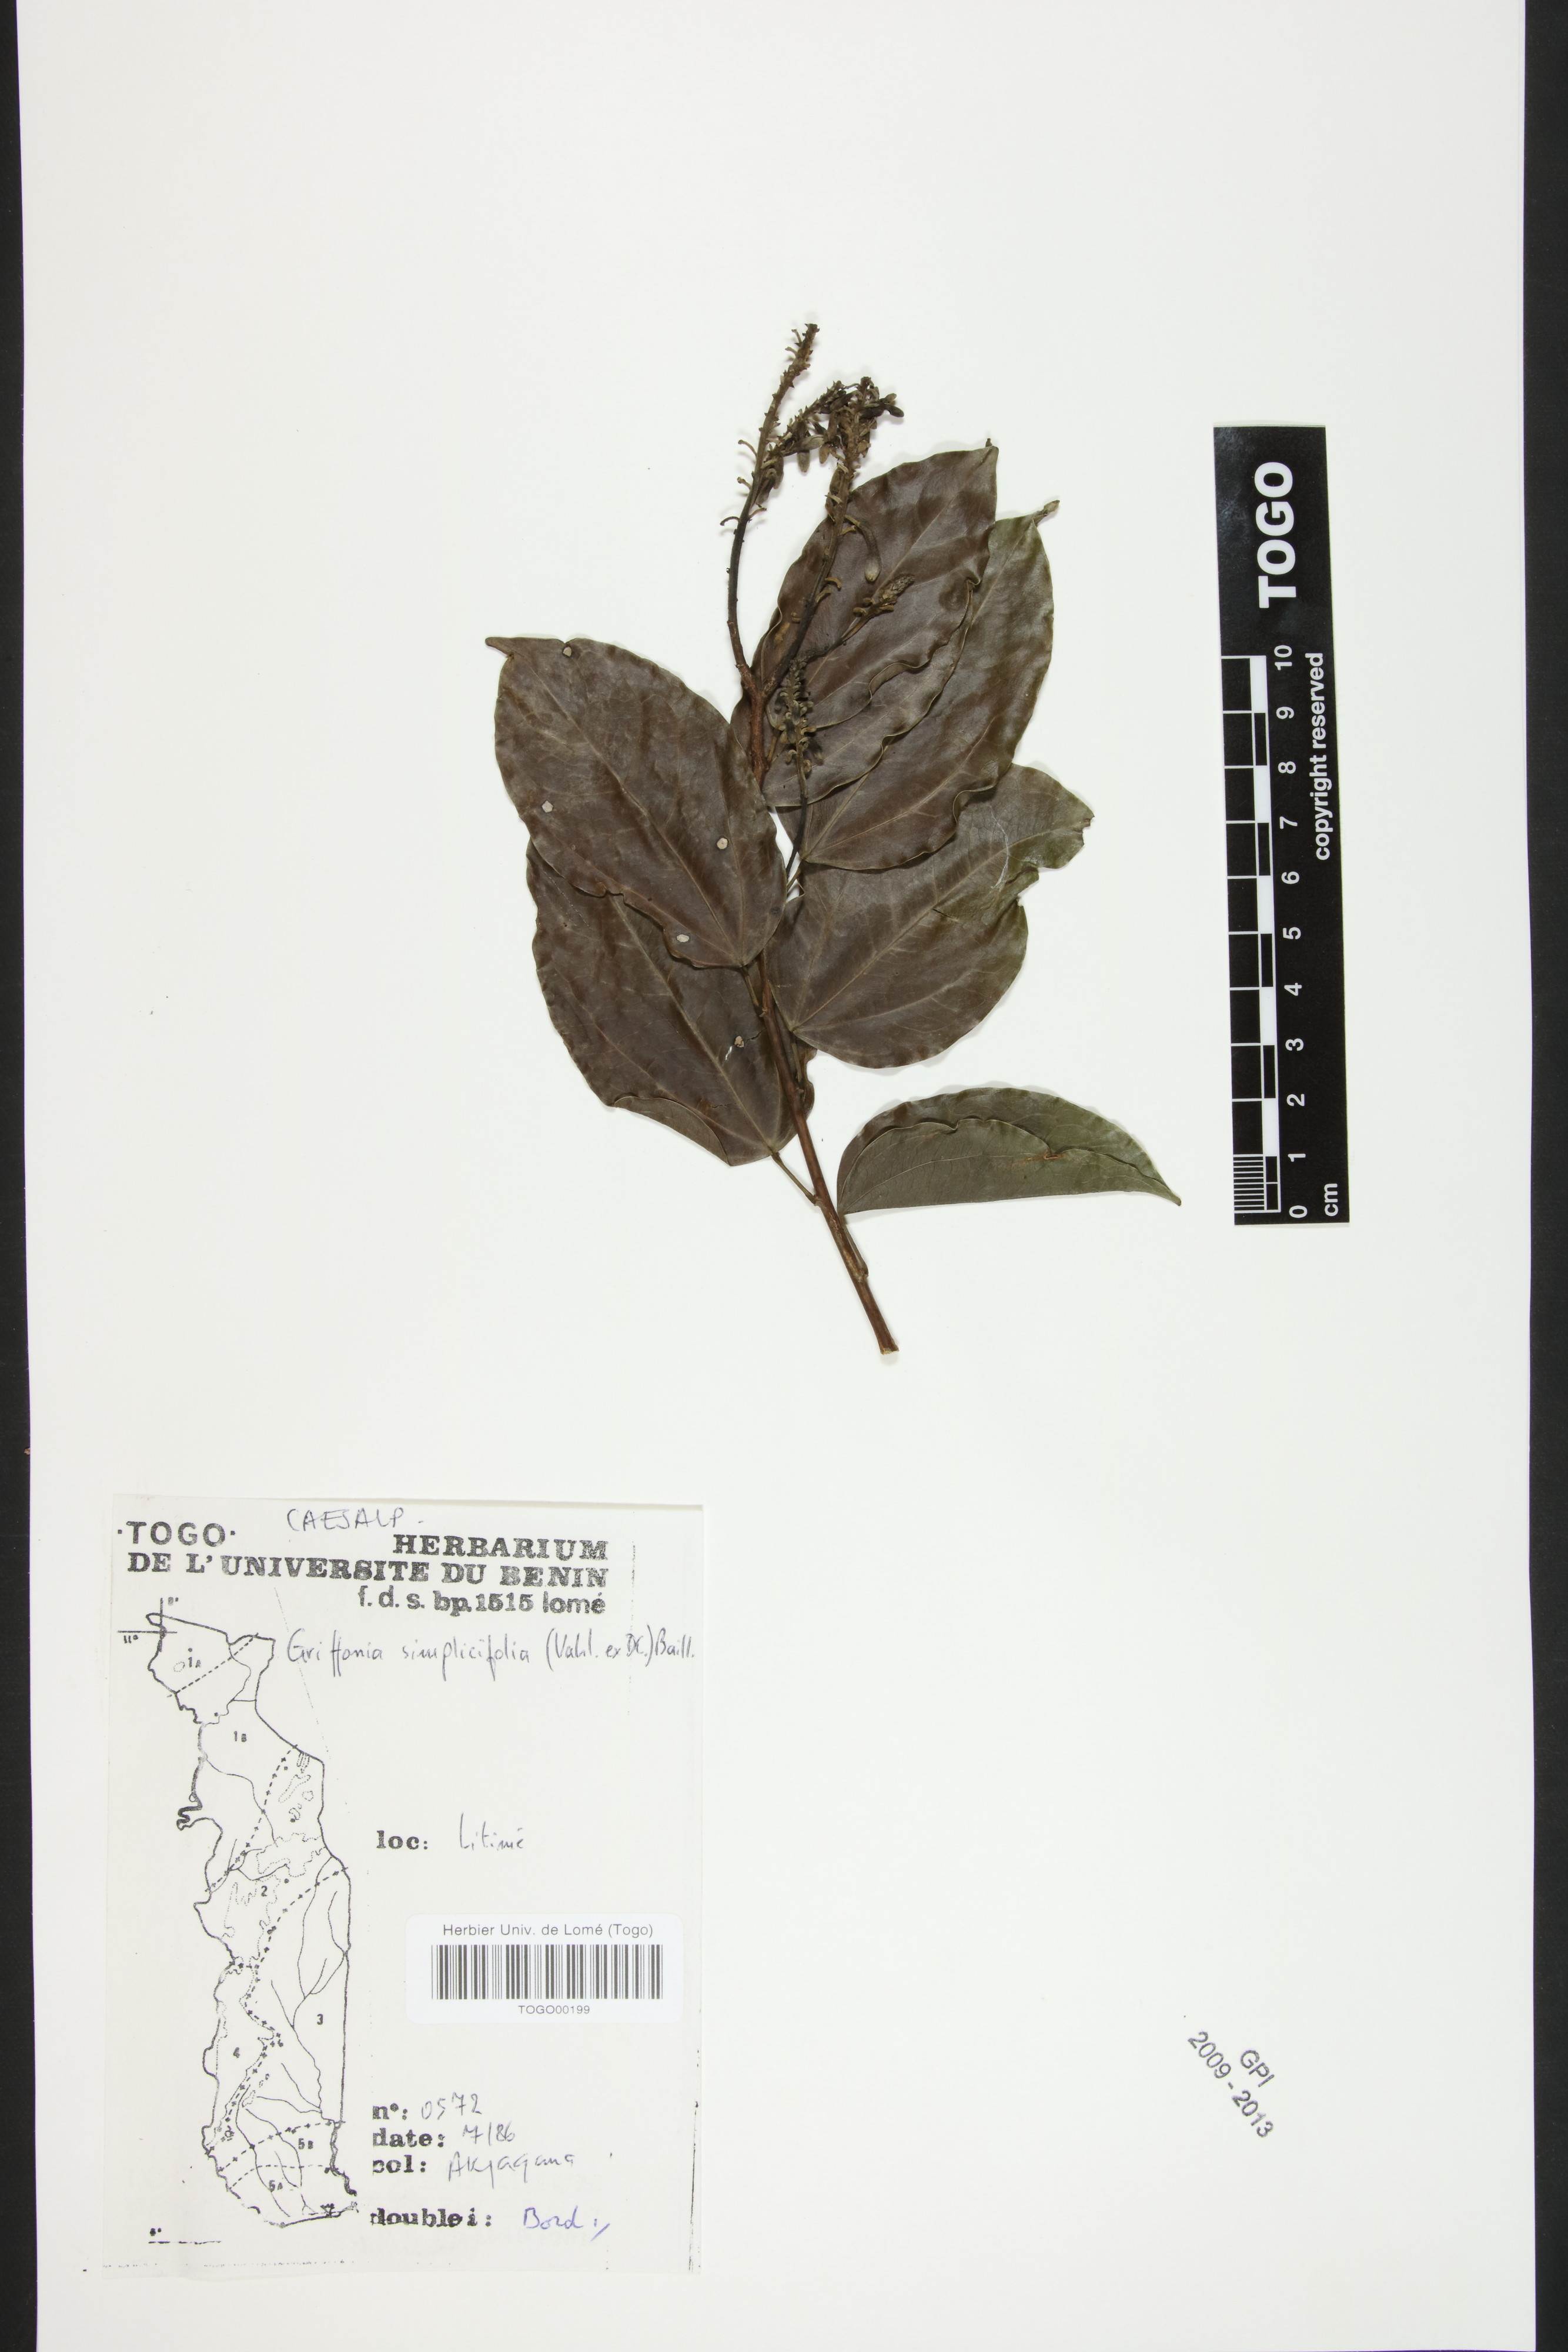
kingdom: Plantae
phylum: Tracheophyta
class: Magnoliopsida
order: Fabales
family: Fabaceae
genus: Griffonia
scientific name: Griffonia simplicifolia
